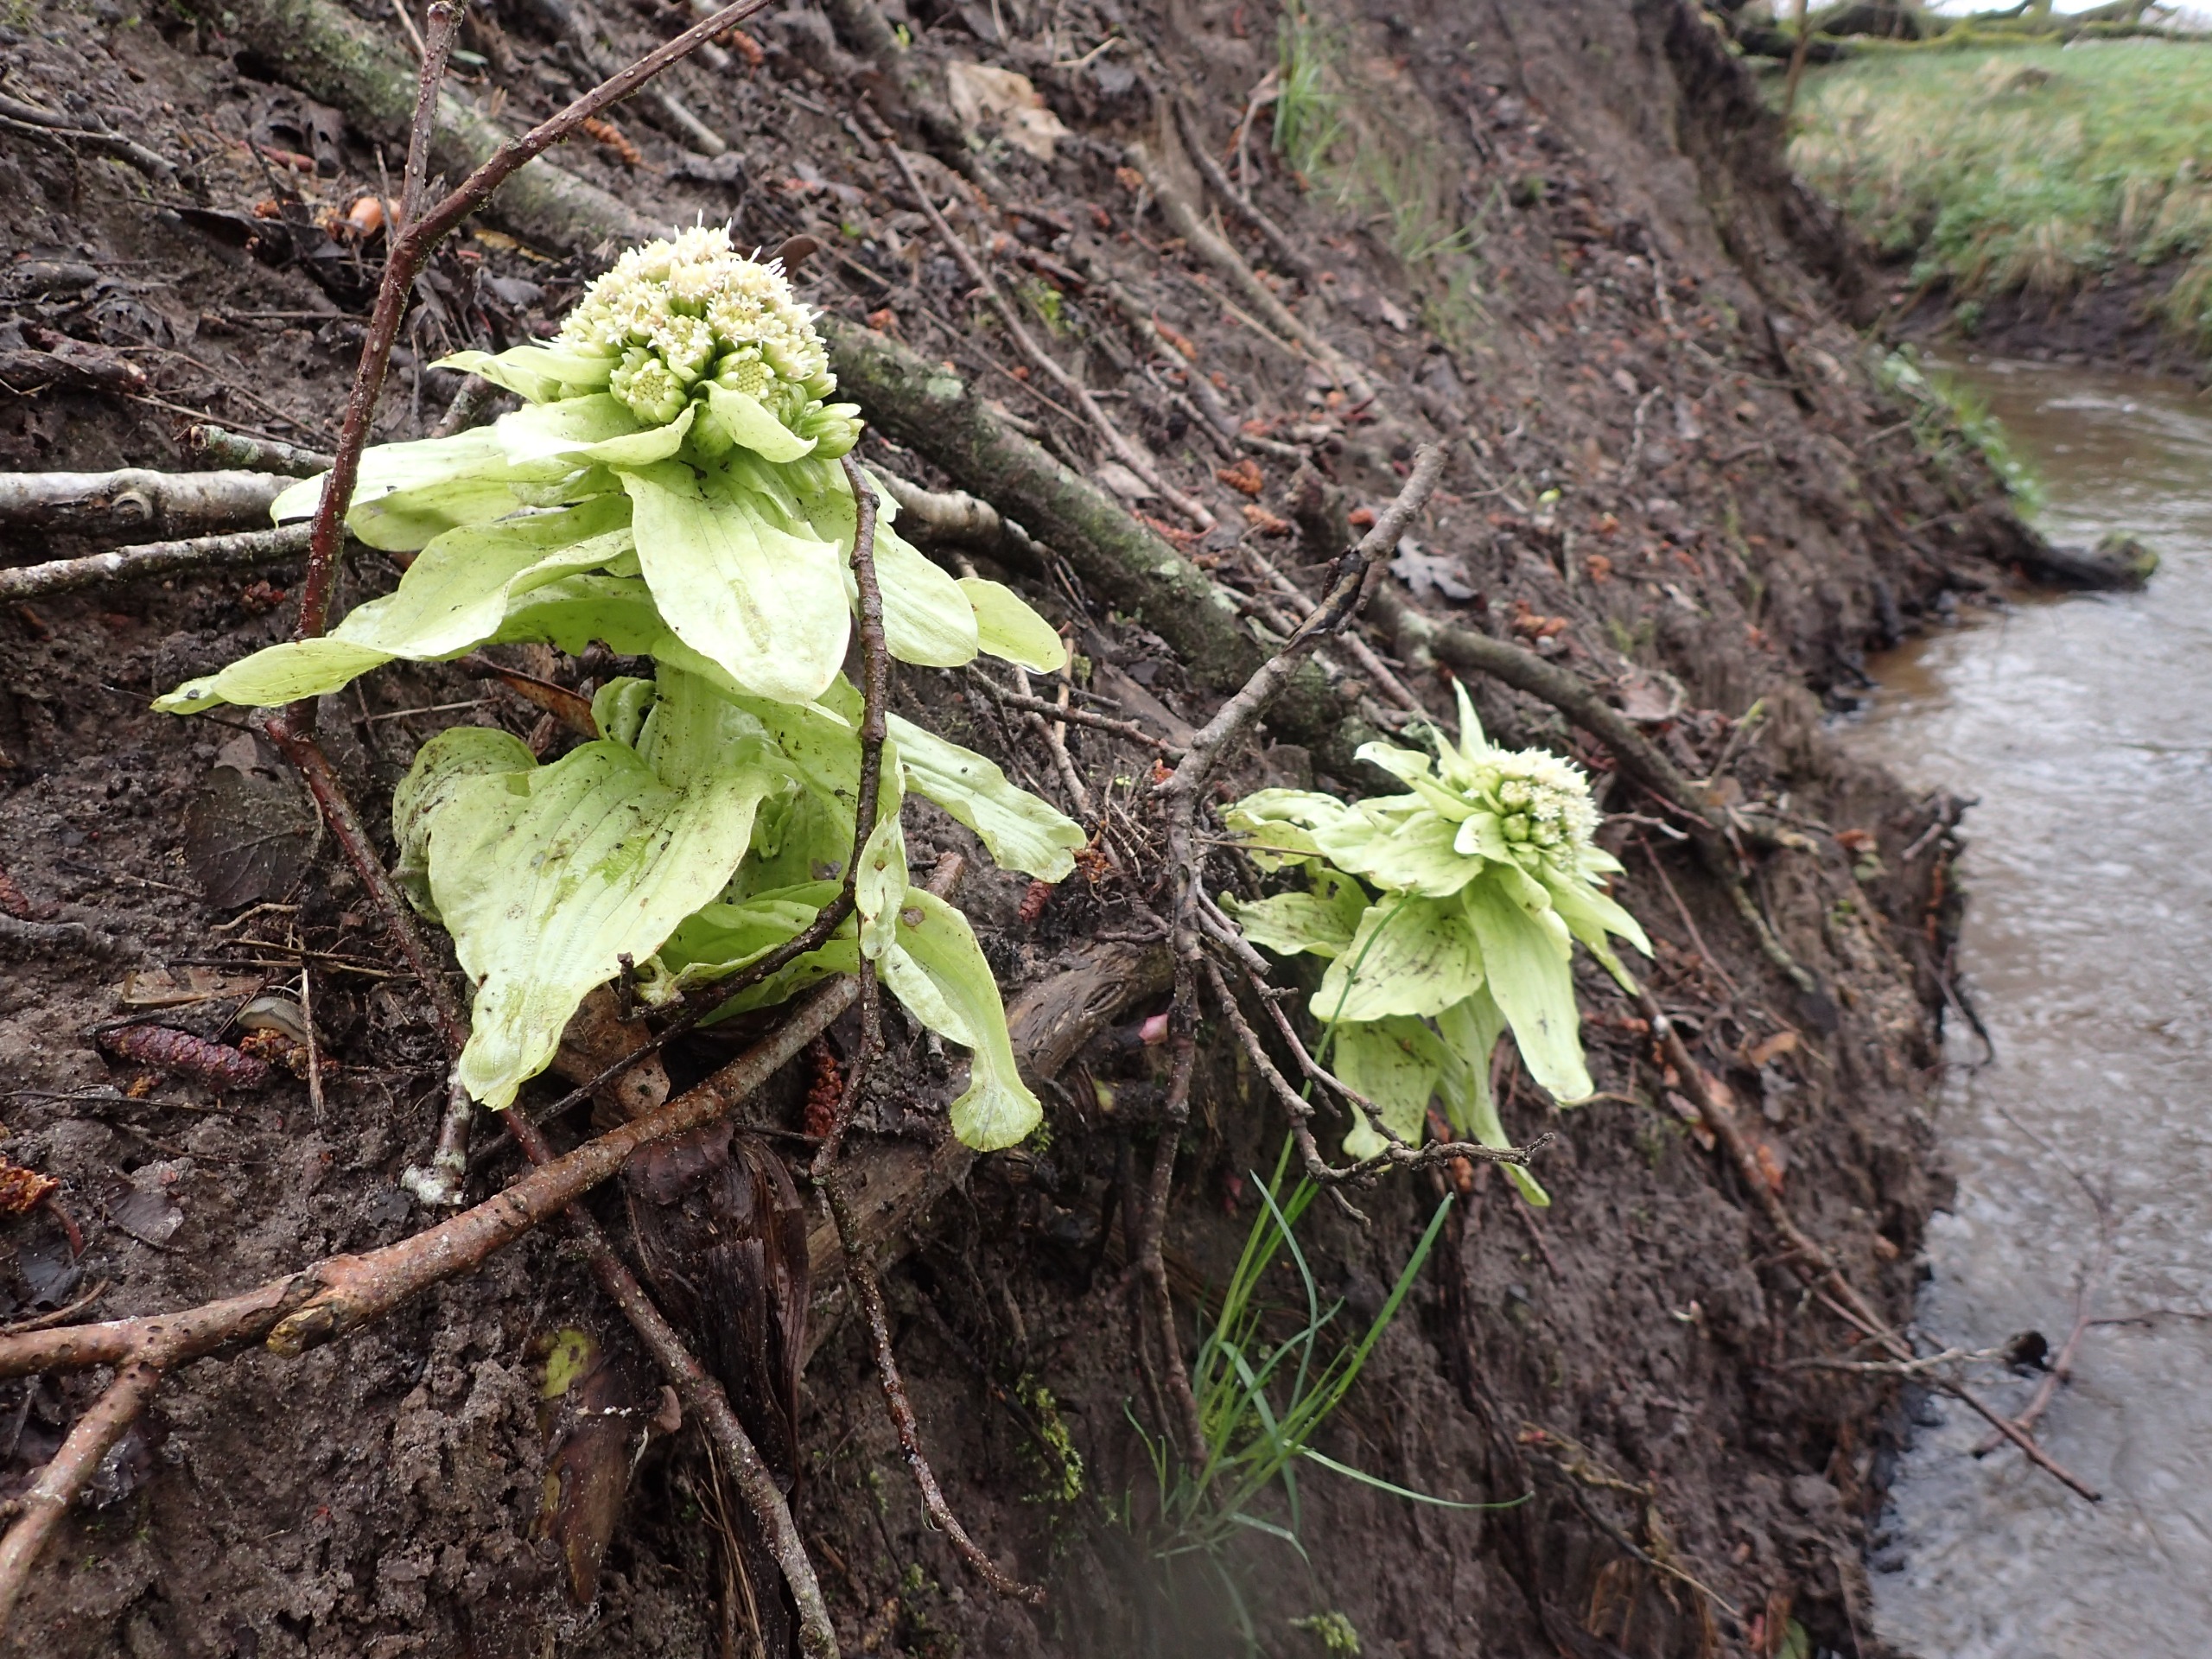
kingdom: Plantae
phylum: Tracheophyta
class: Magnoliopsida
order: Asterales
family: Asteraceae
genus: Petasites
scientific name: Petasites japonicus
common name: Japansk hestehov
